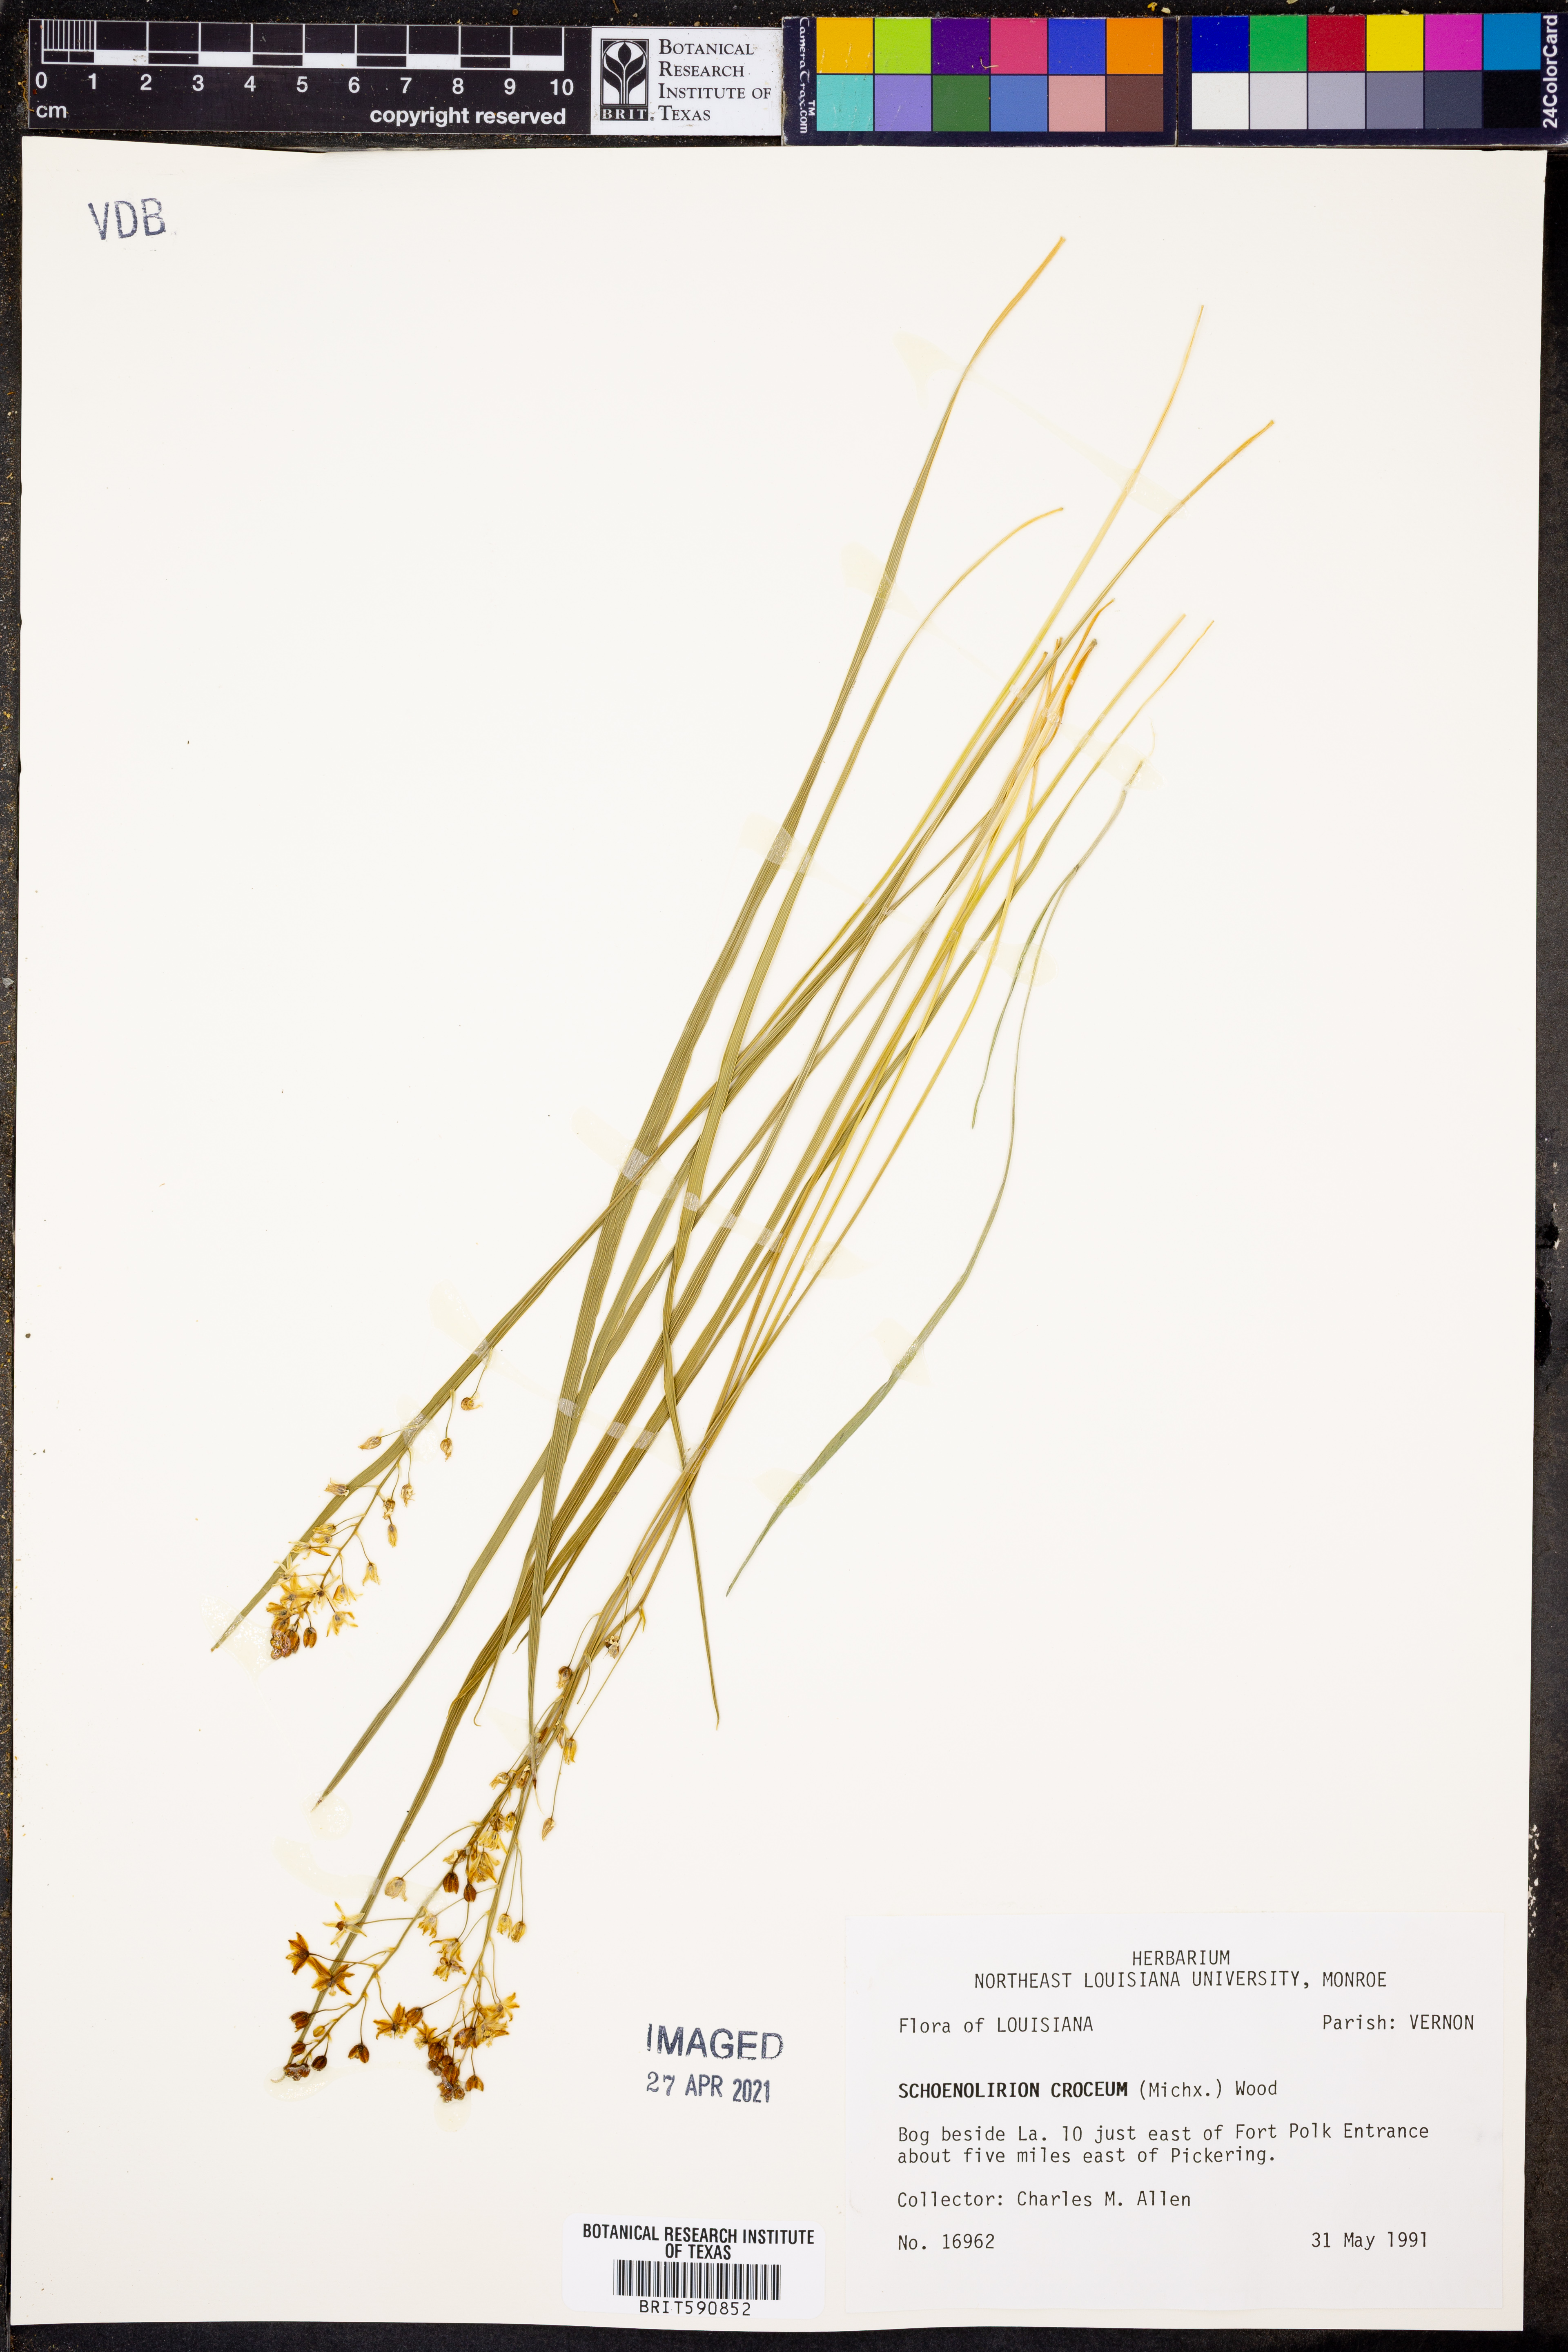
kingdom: Plantae
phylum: Tracheophyta
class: Liliopsida
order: Asparagales
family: Asparagaceae
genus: Schoenolirion
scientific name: Schoenolirion croceum
